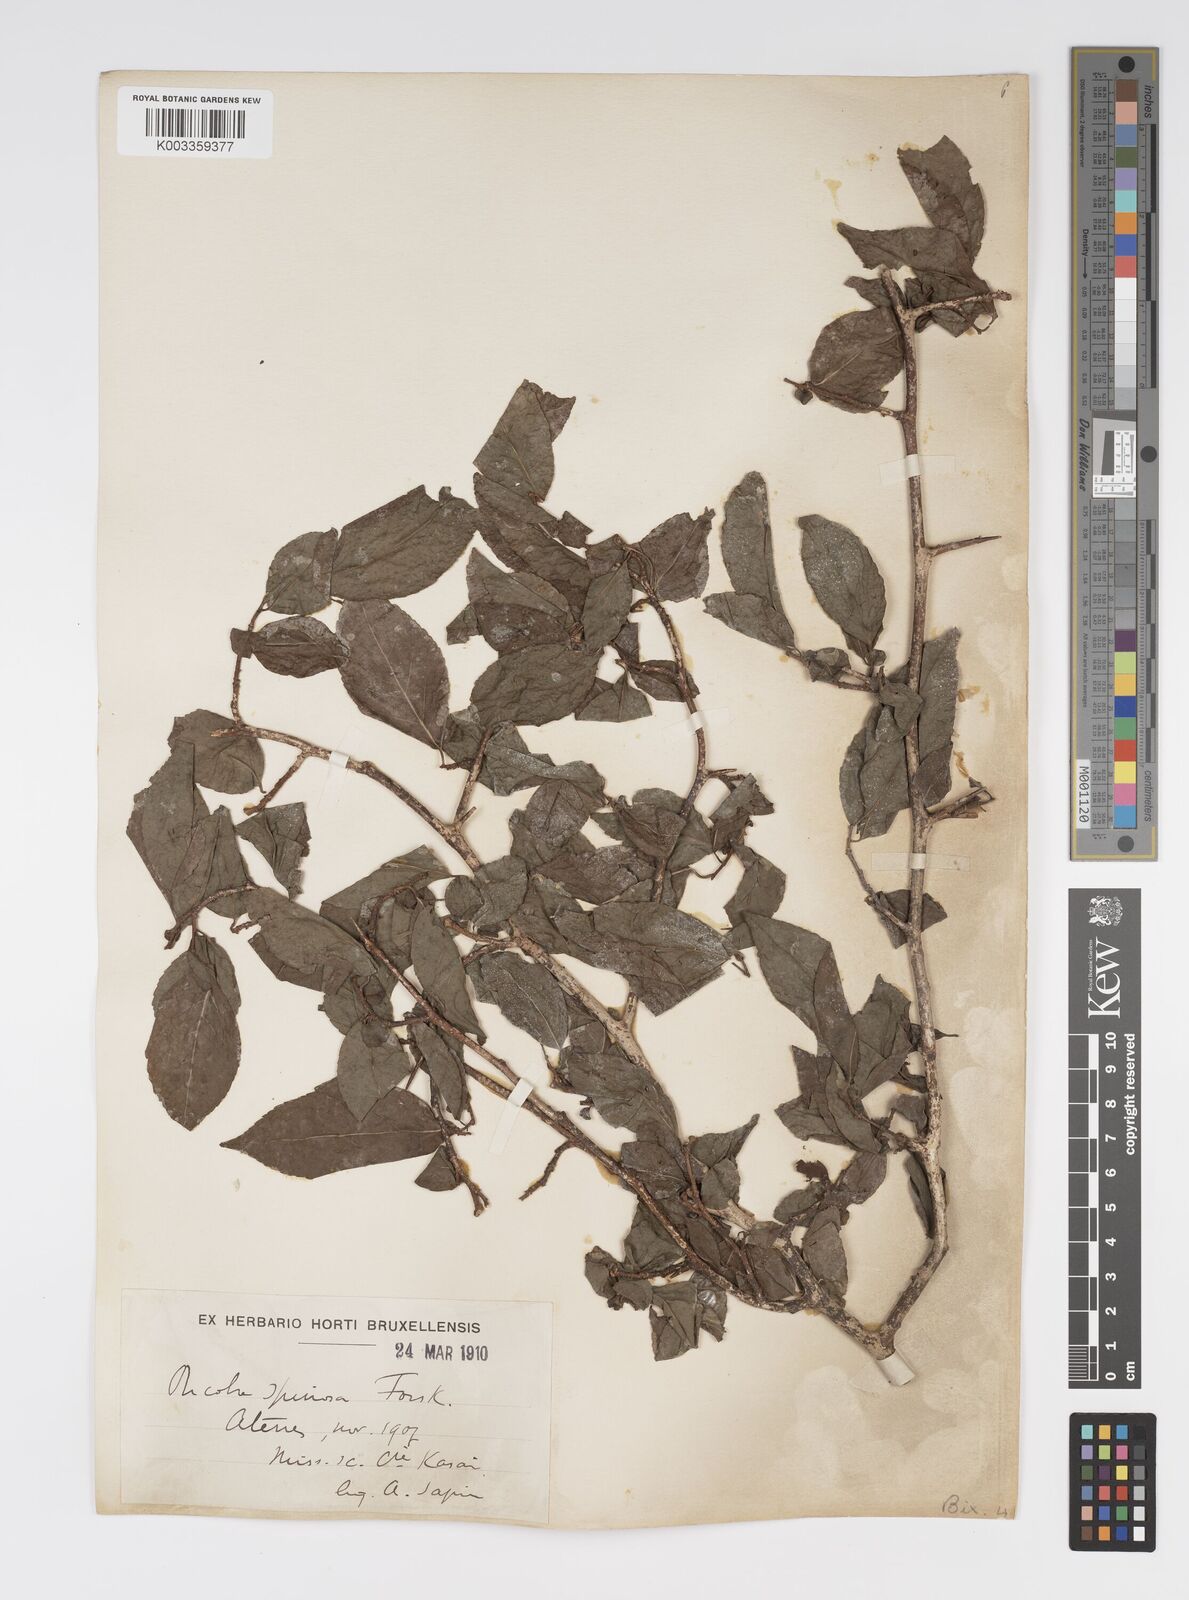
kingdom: Plantae
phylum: Tracheophyta
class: Magnoliopsida
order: Malpighiales
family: Salicaceae
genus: Oncoba
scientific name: Oncoba spinosa
